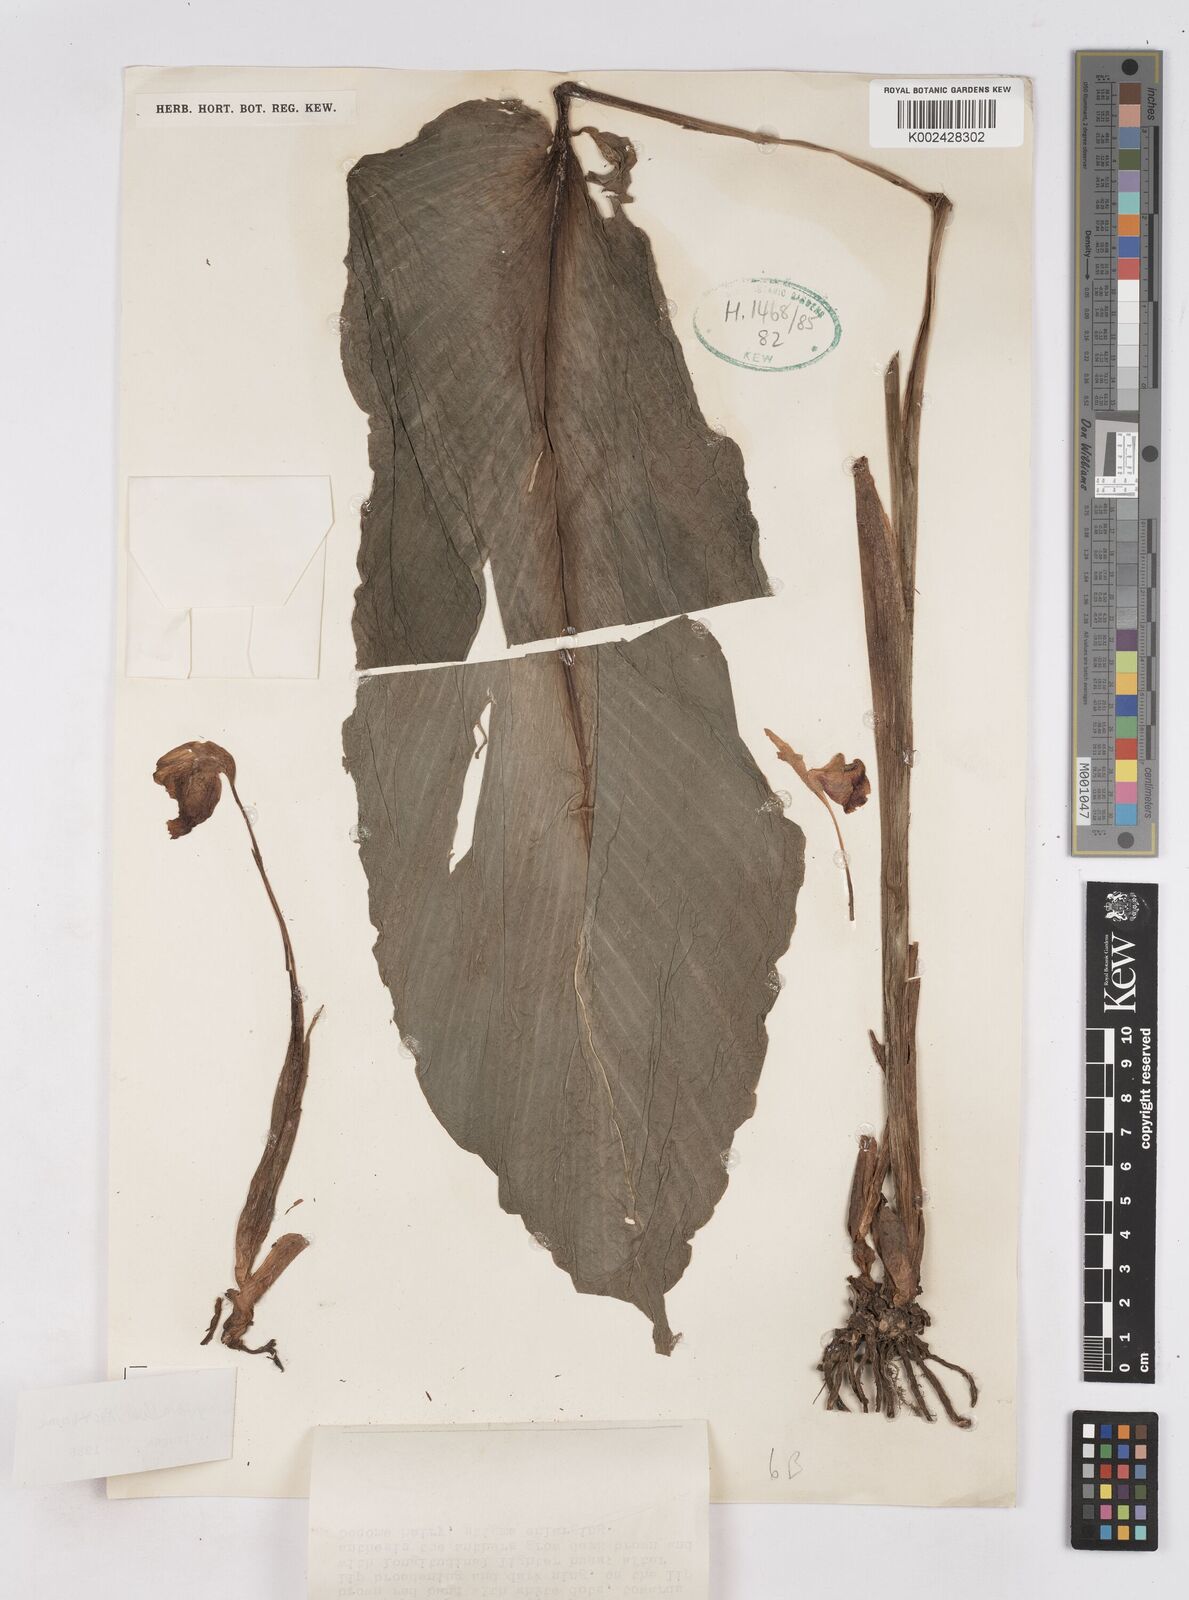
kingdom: Plantae
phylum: Tracheophyta
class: Liliopsida
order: Zingiberales
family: Zingiberaceae
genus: Boesenbergia
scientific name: Boesenbergia longiflora
